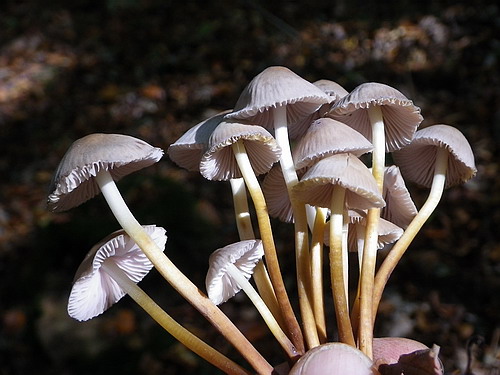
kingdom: Fungi
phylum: Basidiomycota
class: Agaricomycetes
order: Agaricales
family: Mycenaceae
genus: Mycena
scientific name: Mycena inclinata
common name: nikkende huesvamp
